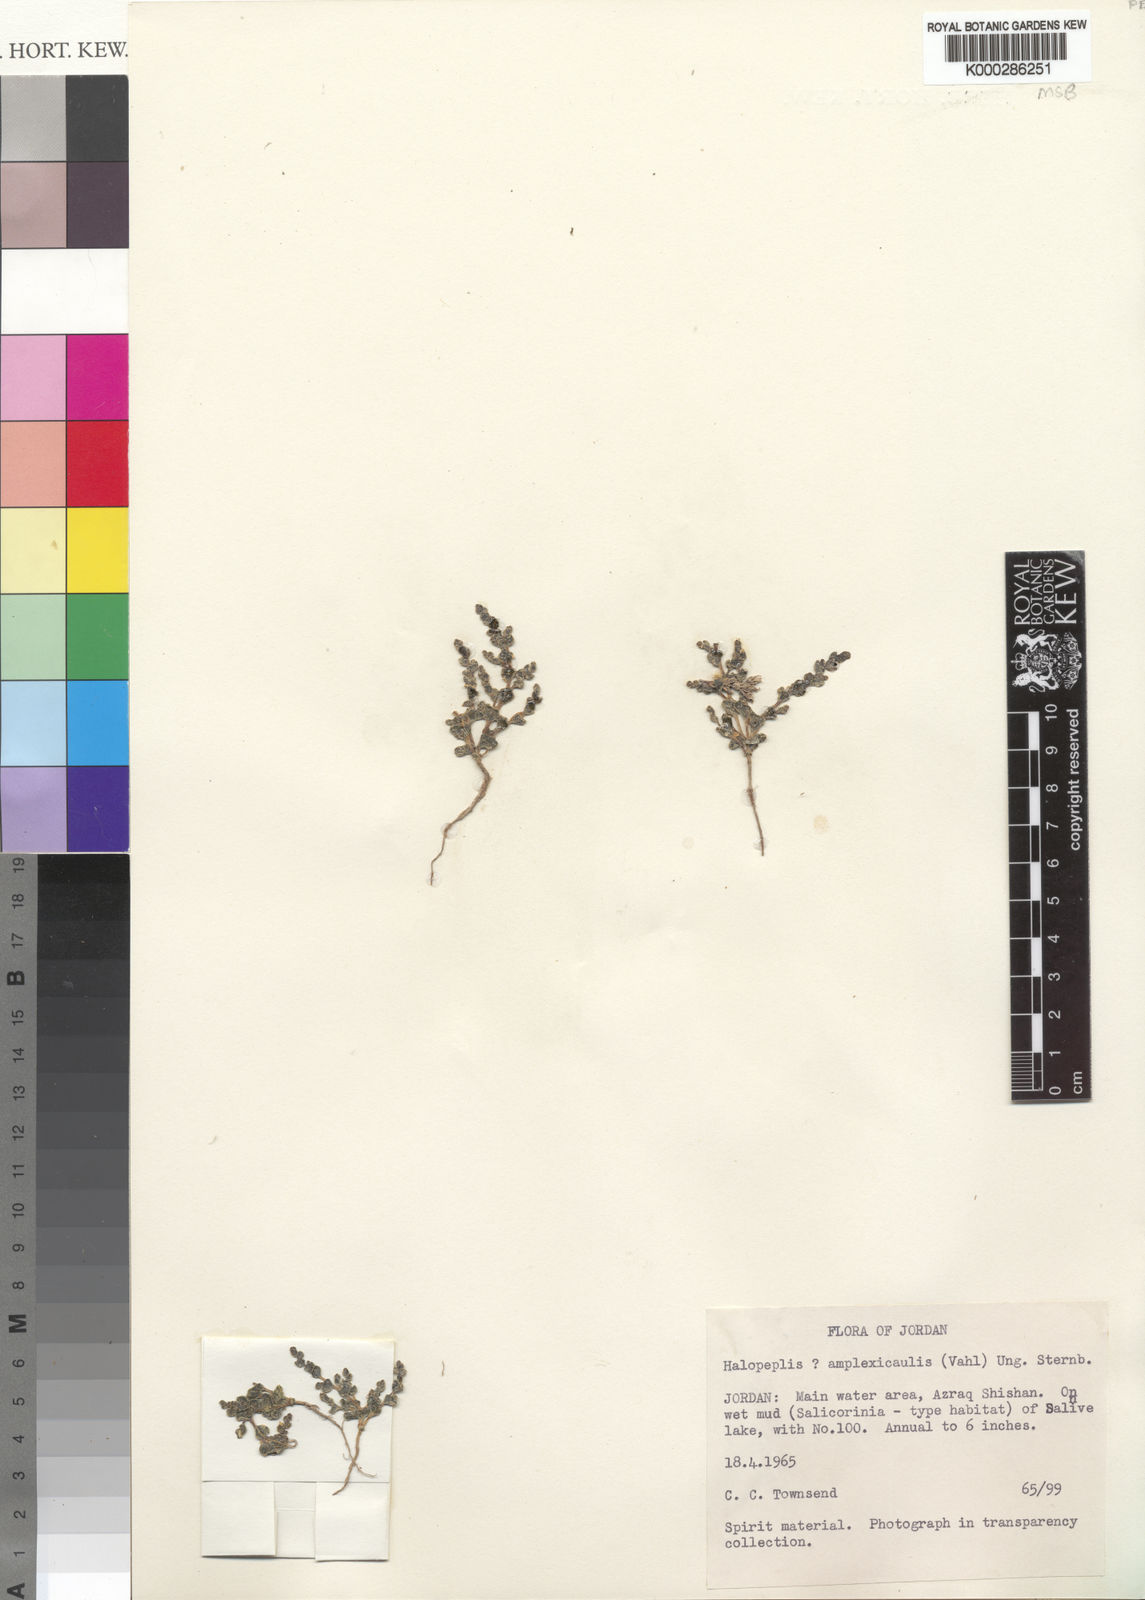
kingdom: Plantae
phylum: Tracheophyta
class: Magnoliopsida
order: Caryophyllales
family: Amaranthaceae
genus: Halopeplis
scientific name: Halopeplis amplexicaulis
